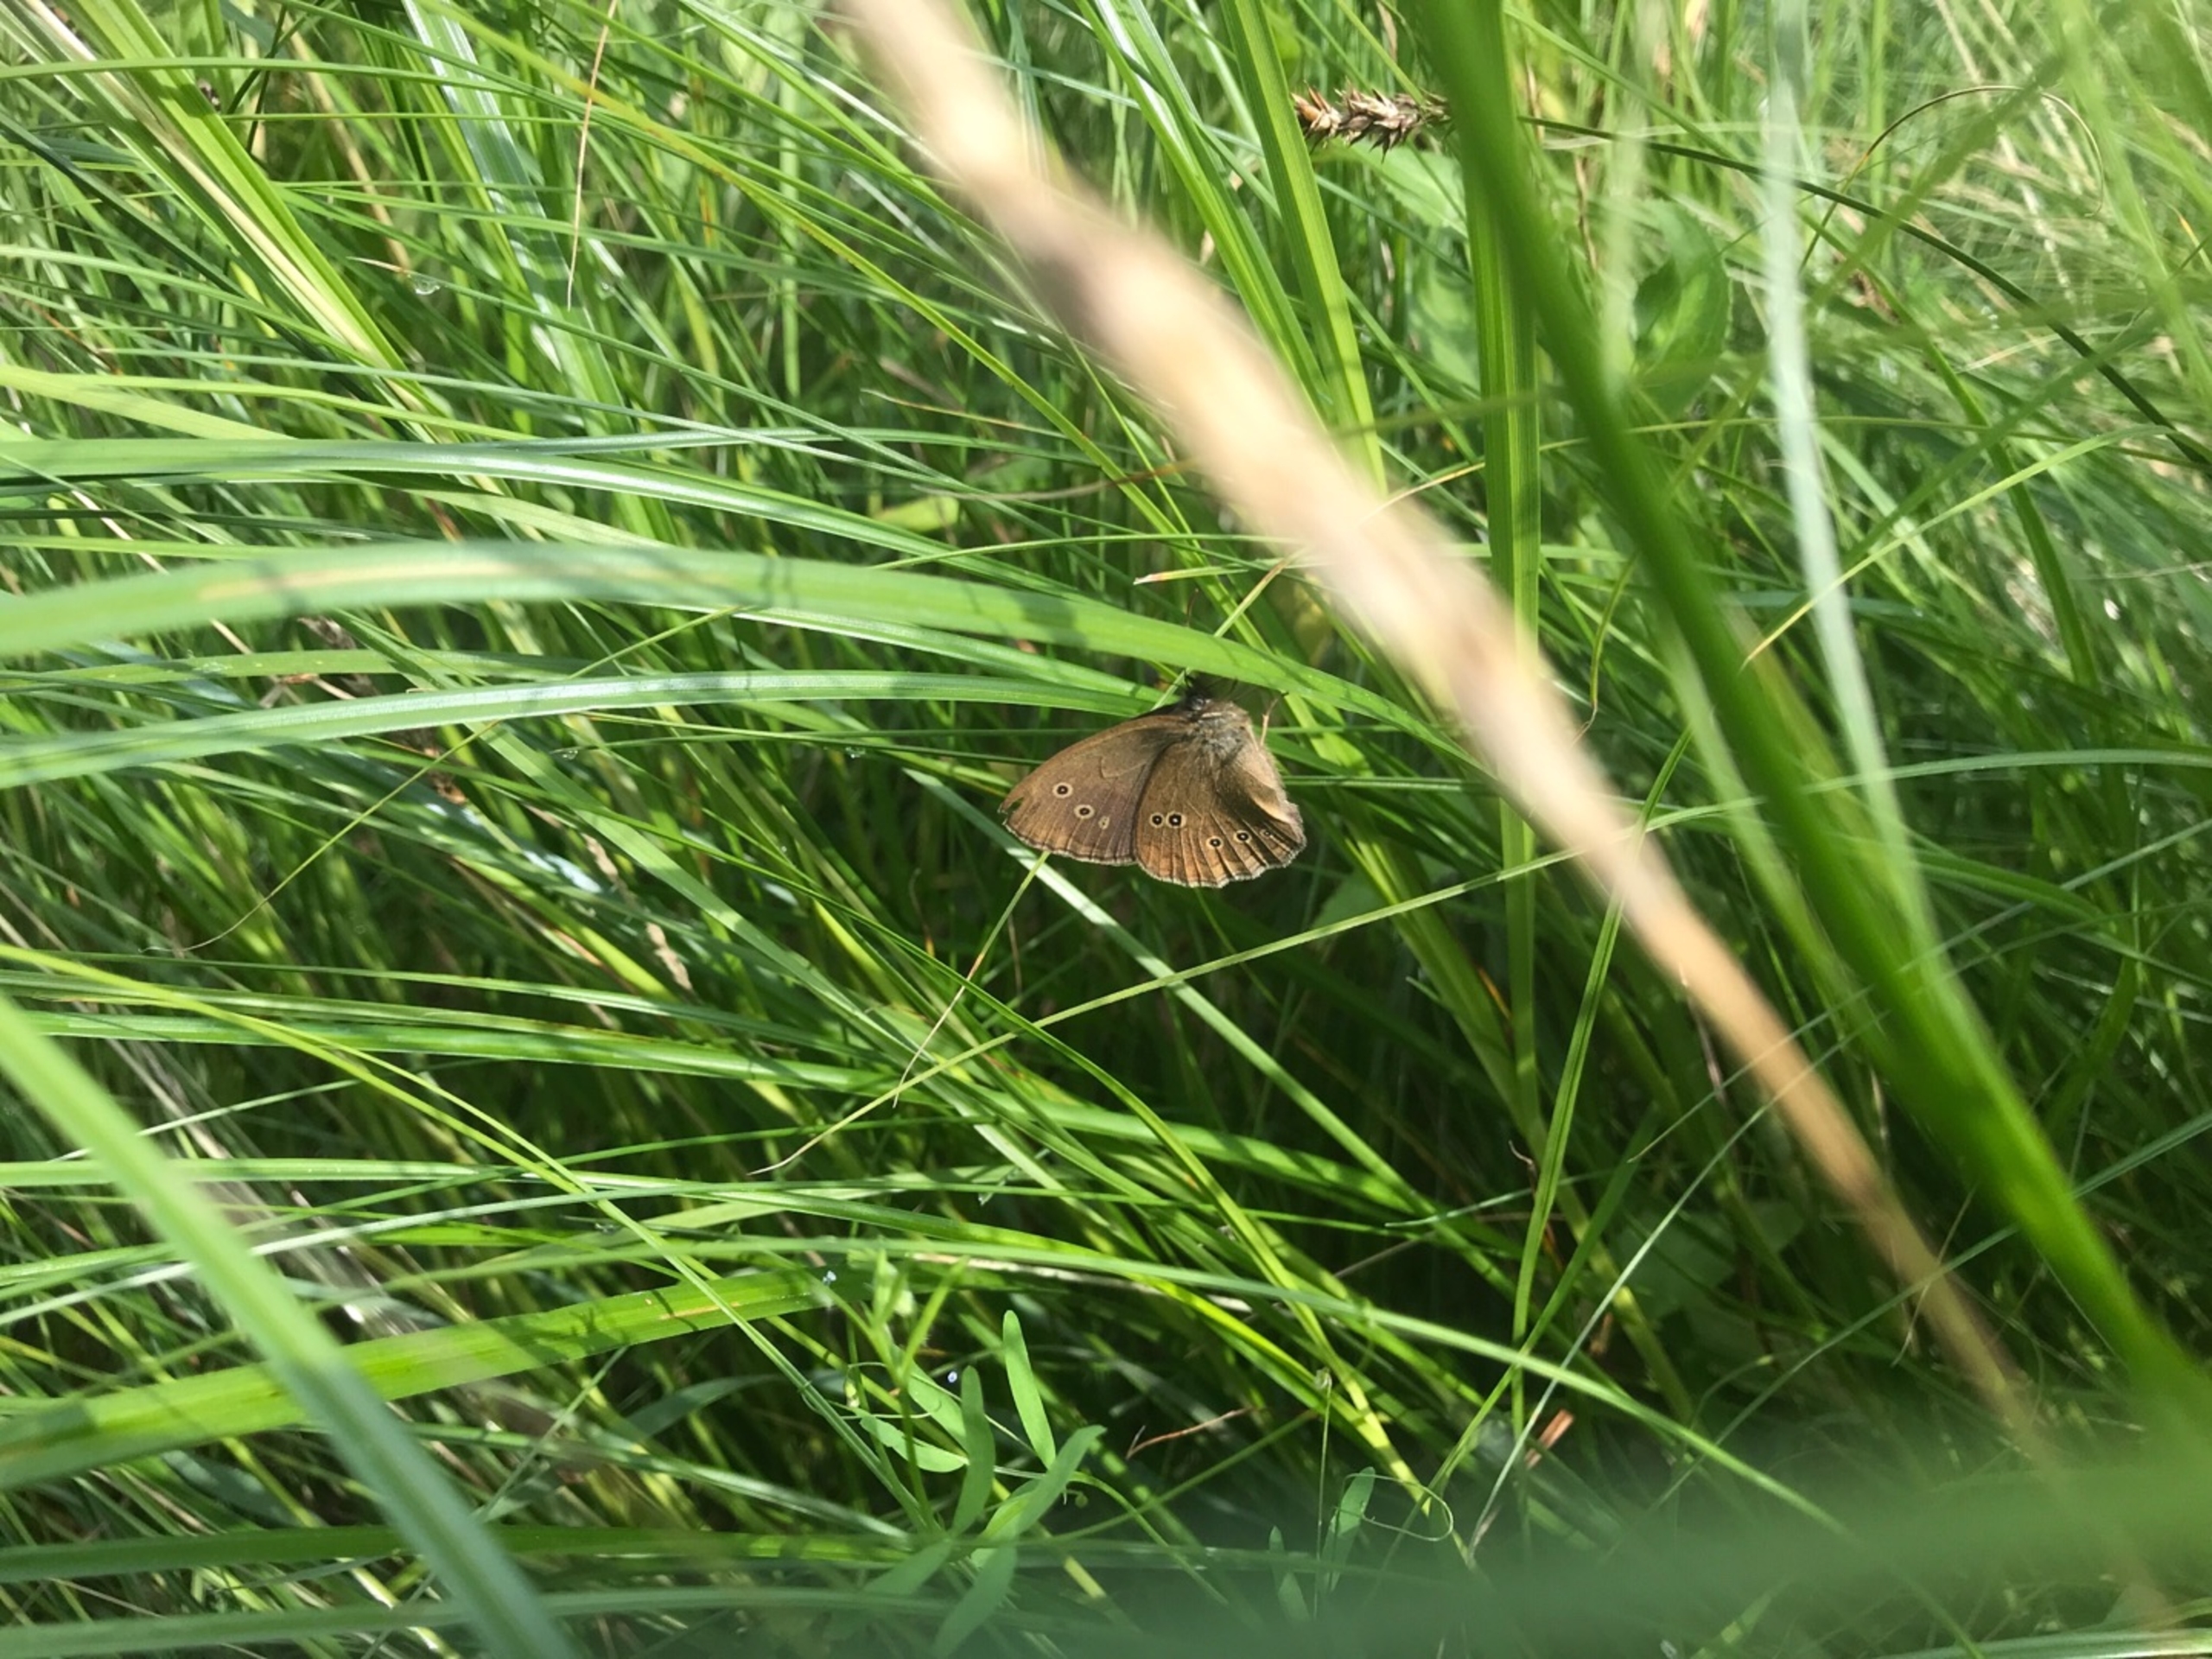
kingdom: Animalia
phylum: Arthropoda
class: Insecta
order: Lepidoptera
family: Nymphalidae
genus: Aphantopus
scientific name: Aphantopus hyperantus
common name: Engrandøje
